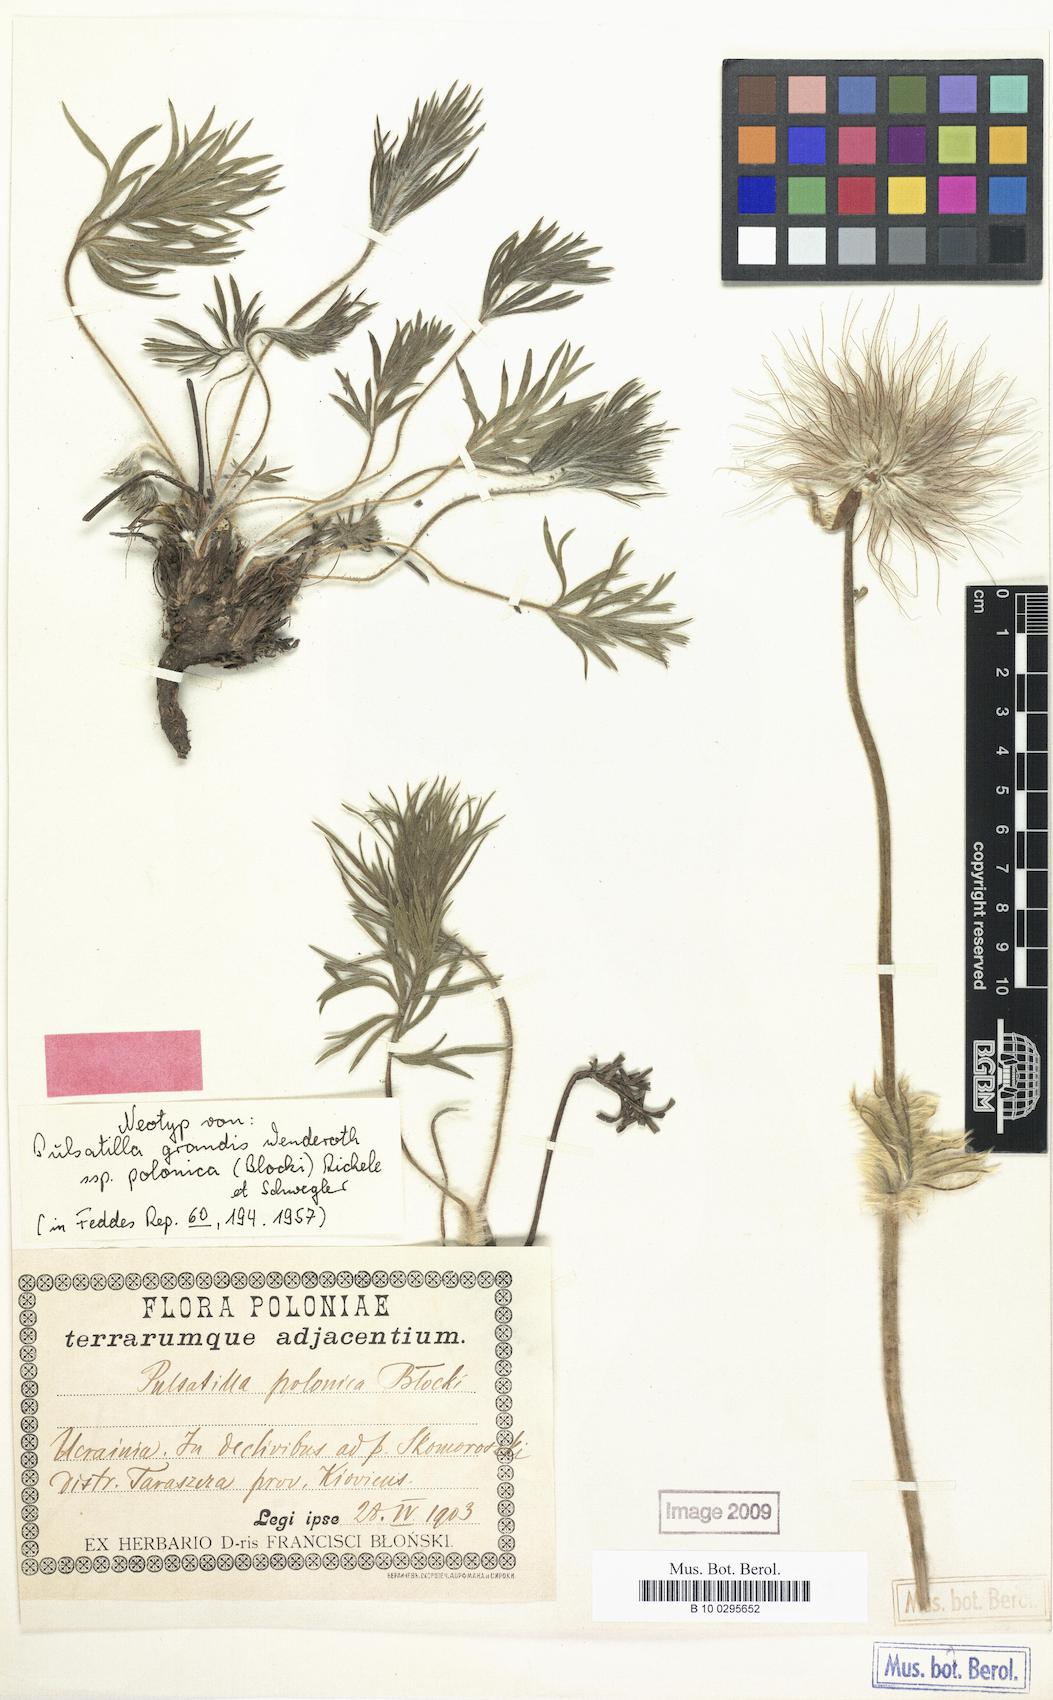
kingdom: Plantae
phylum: Tracheophyta
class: Magnoliopsida
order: Ranunculales
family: Ranunculaceae
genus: Pulsatilla
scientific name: Pulsatilla grandis
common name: Greater pasque flower
